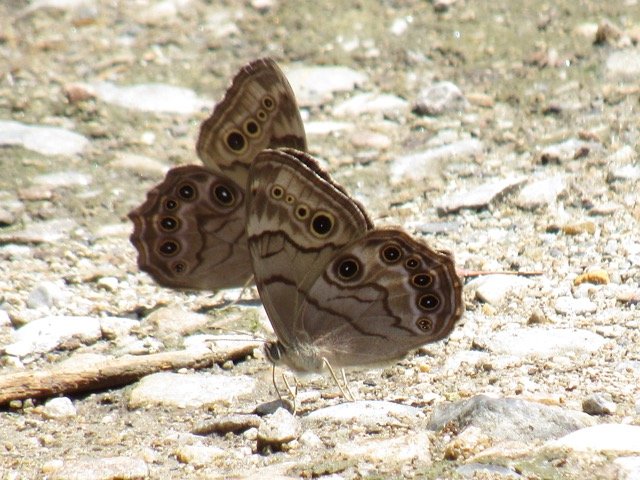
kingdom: Animalia
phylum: Arthropoda
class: Insecta
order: Lepidoptera
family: Nymphalidae
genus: Lethe
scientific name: Lethe anthedon
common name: Northern Pearly-Eye
